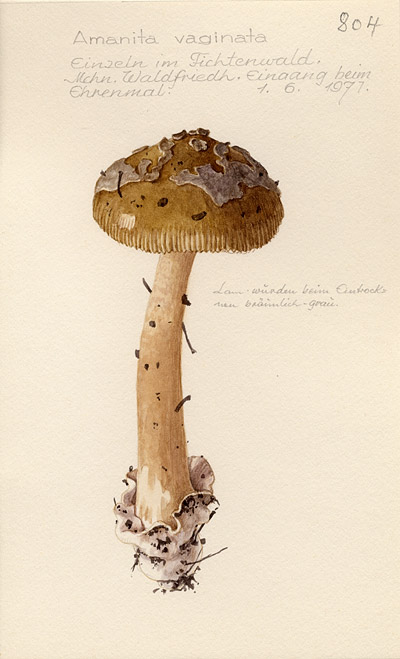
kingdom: Fungi
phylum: Basidiomycota
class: Agaricomycetes
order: Agaricales
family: Amanitaceae
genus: Amanita
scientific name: Amanita vaginata
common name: Grisette
